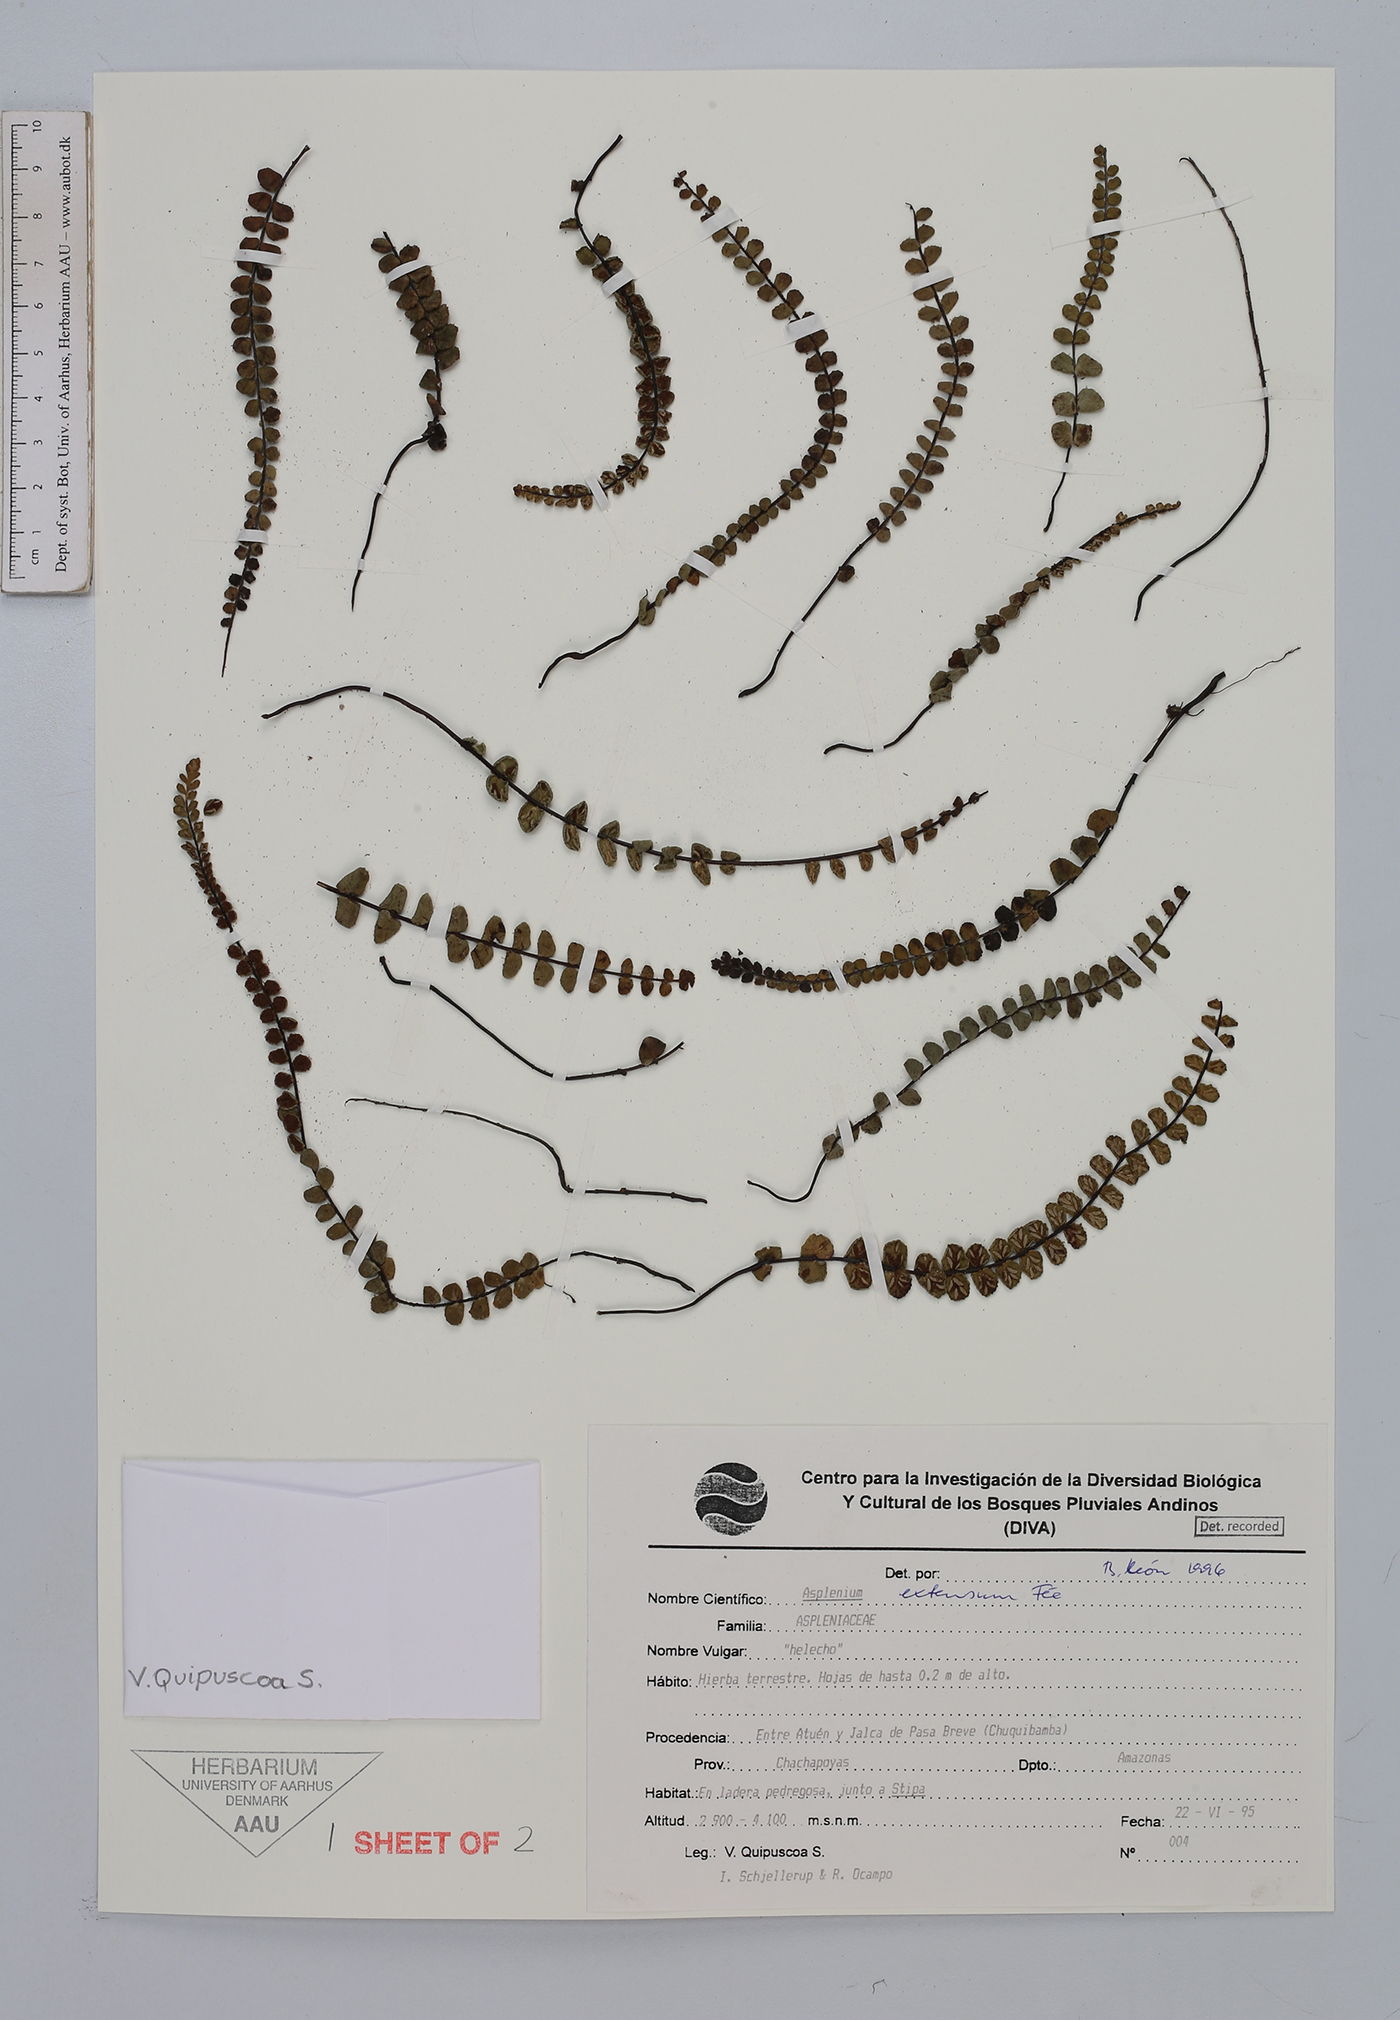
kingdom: Plantae
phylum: Tracheophyta
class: Polypodiopsida
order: Polypodiales
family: Aspleniaceae
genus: Asplenium
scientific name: Asplenium extensum
